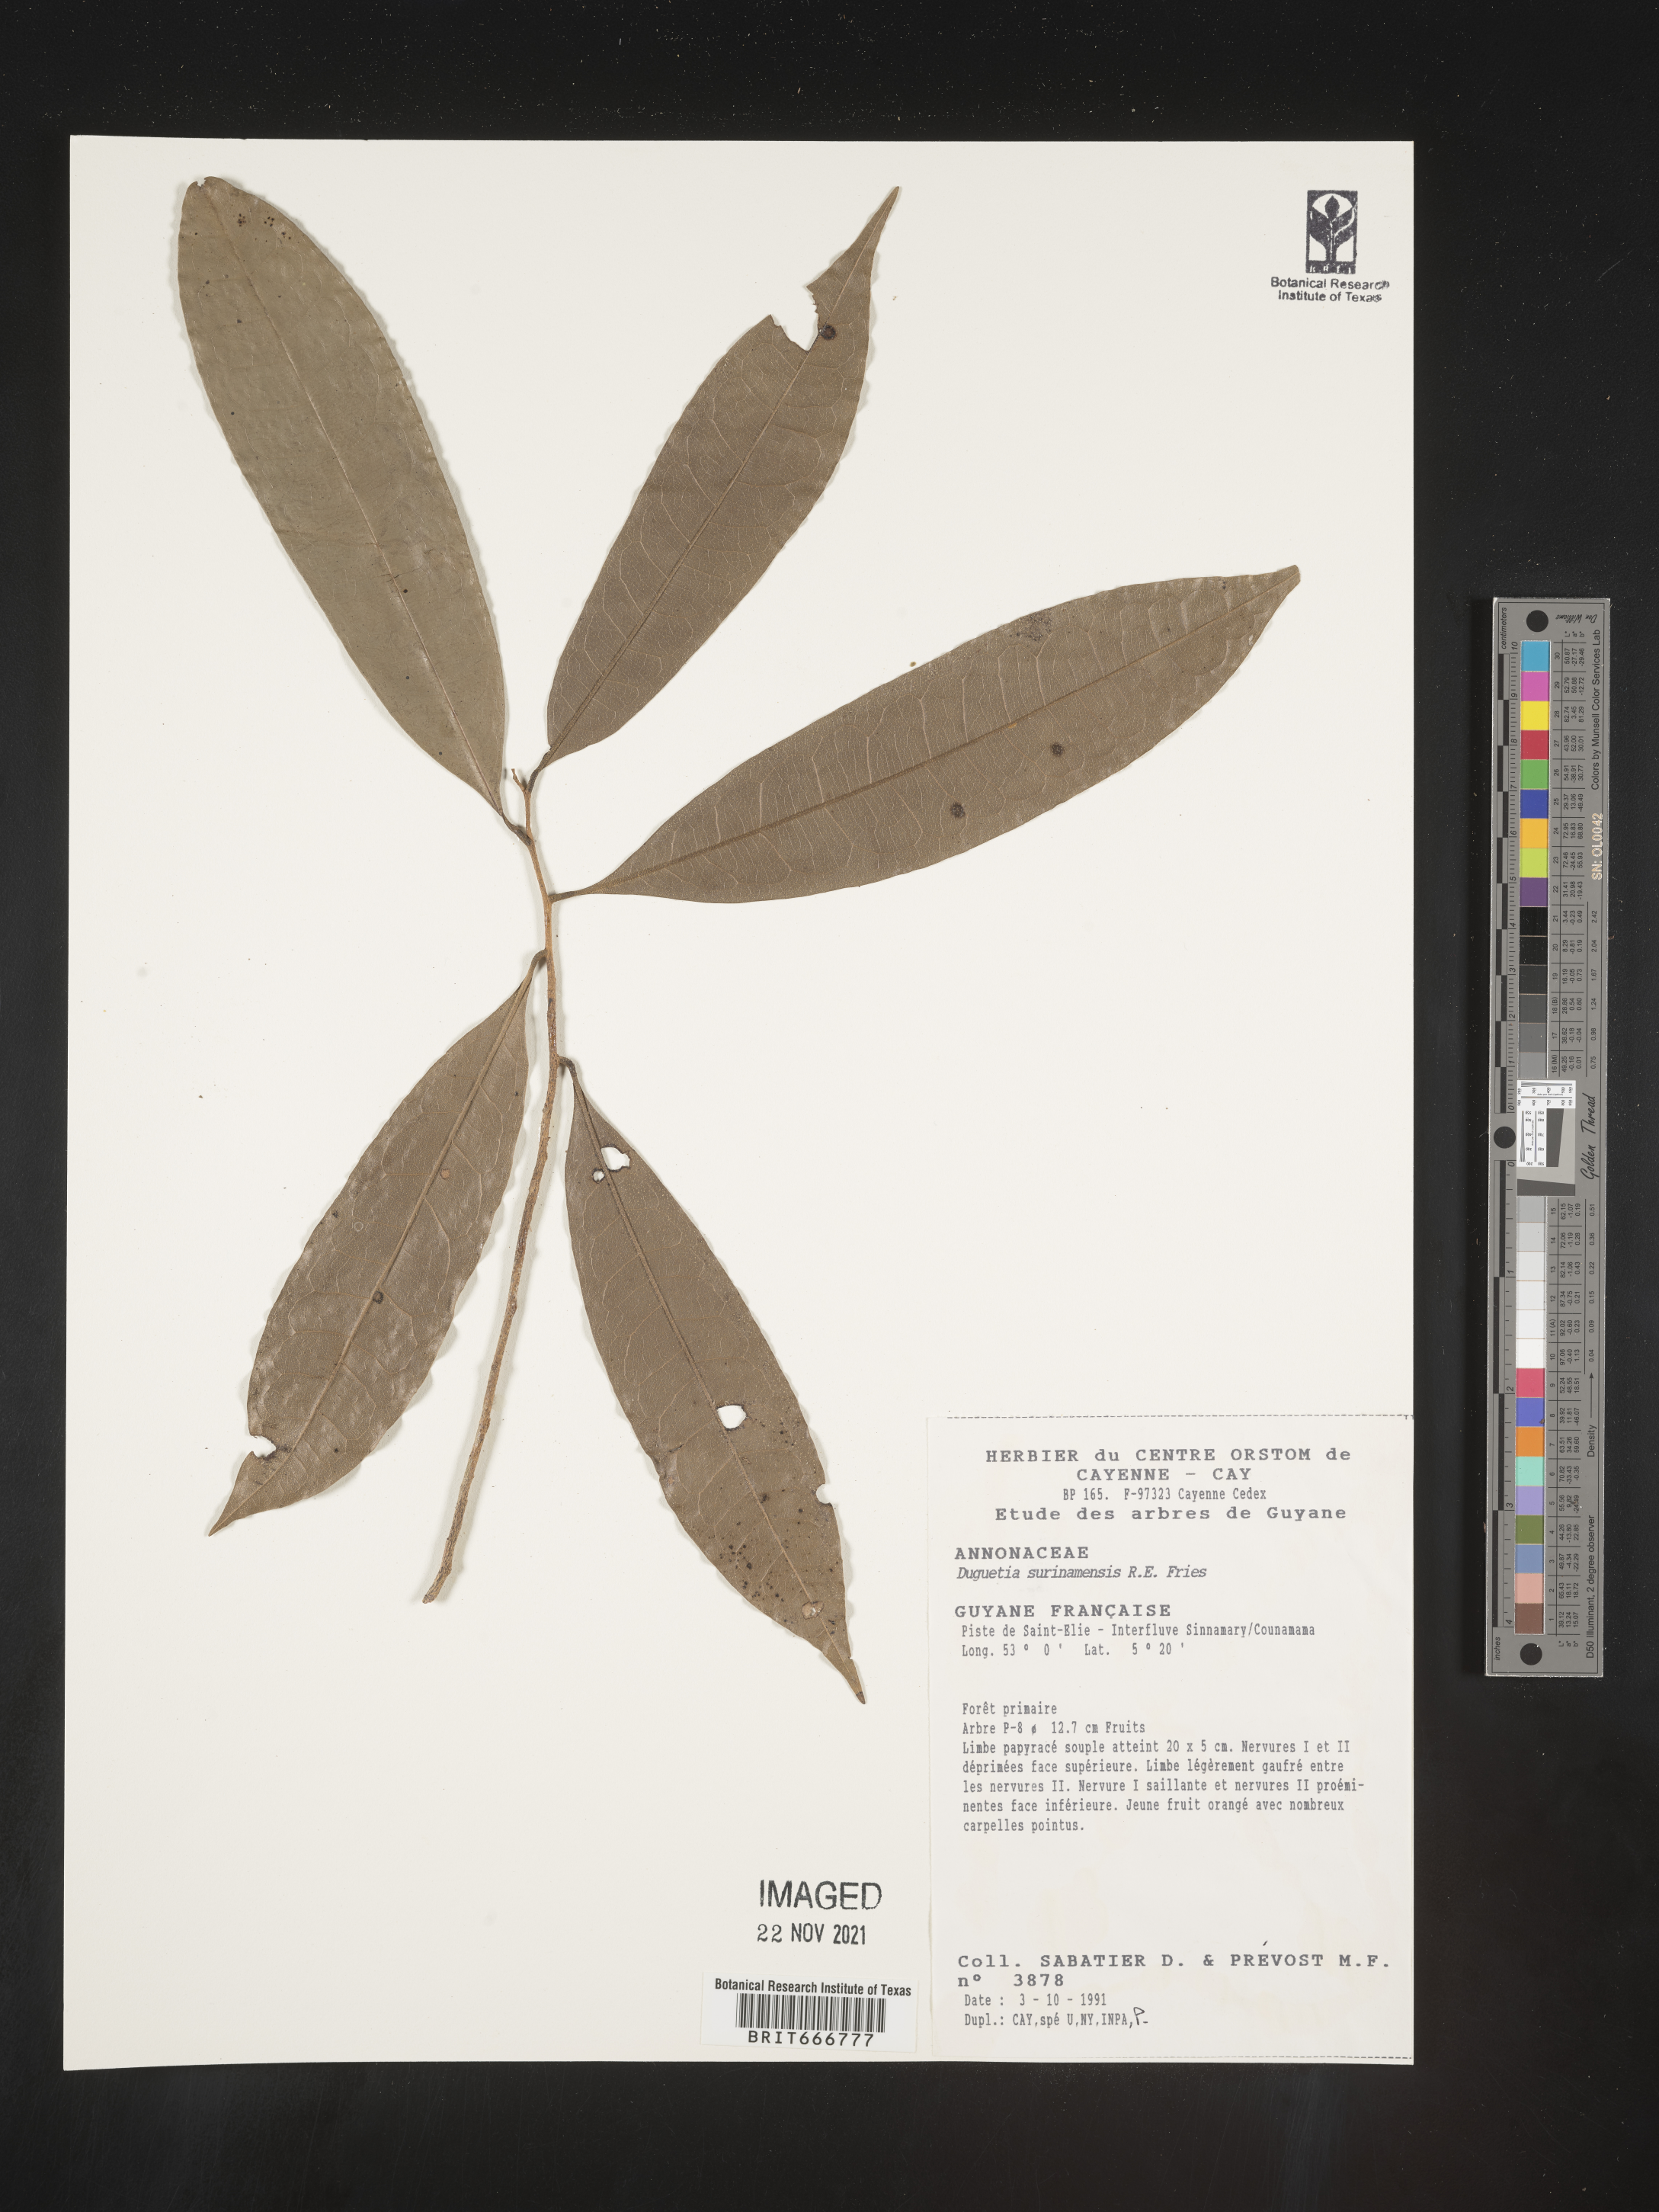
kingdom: Plantae
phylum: Tracheophyta
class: Magnoliopsida
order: Magnoliales
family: Annonaceae
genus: Duguetia
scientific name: Duguetia
